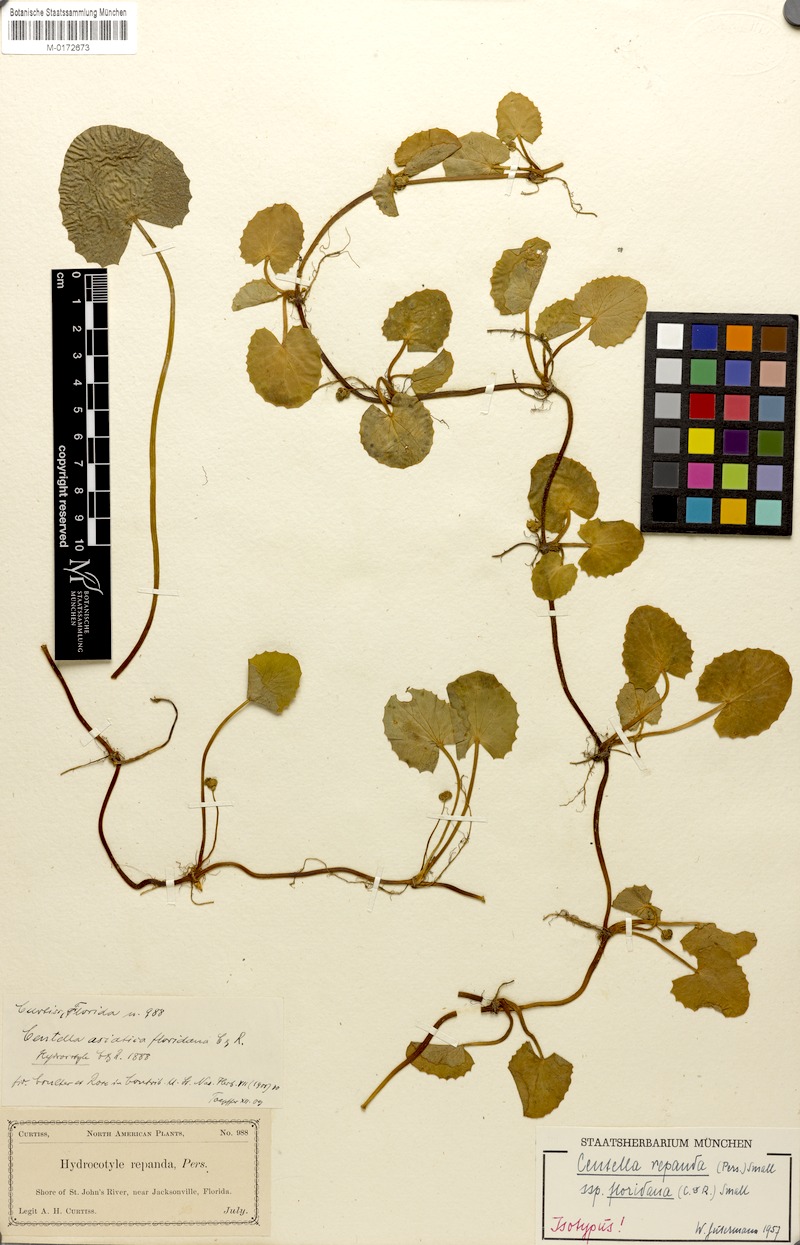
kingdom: Plantae
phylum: Tracheophyta
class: Magnoliopsida
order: Apiales
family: Apiaceae
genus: Centella
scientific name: Centella asiatica
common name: Spadeleaf
